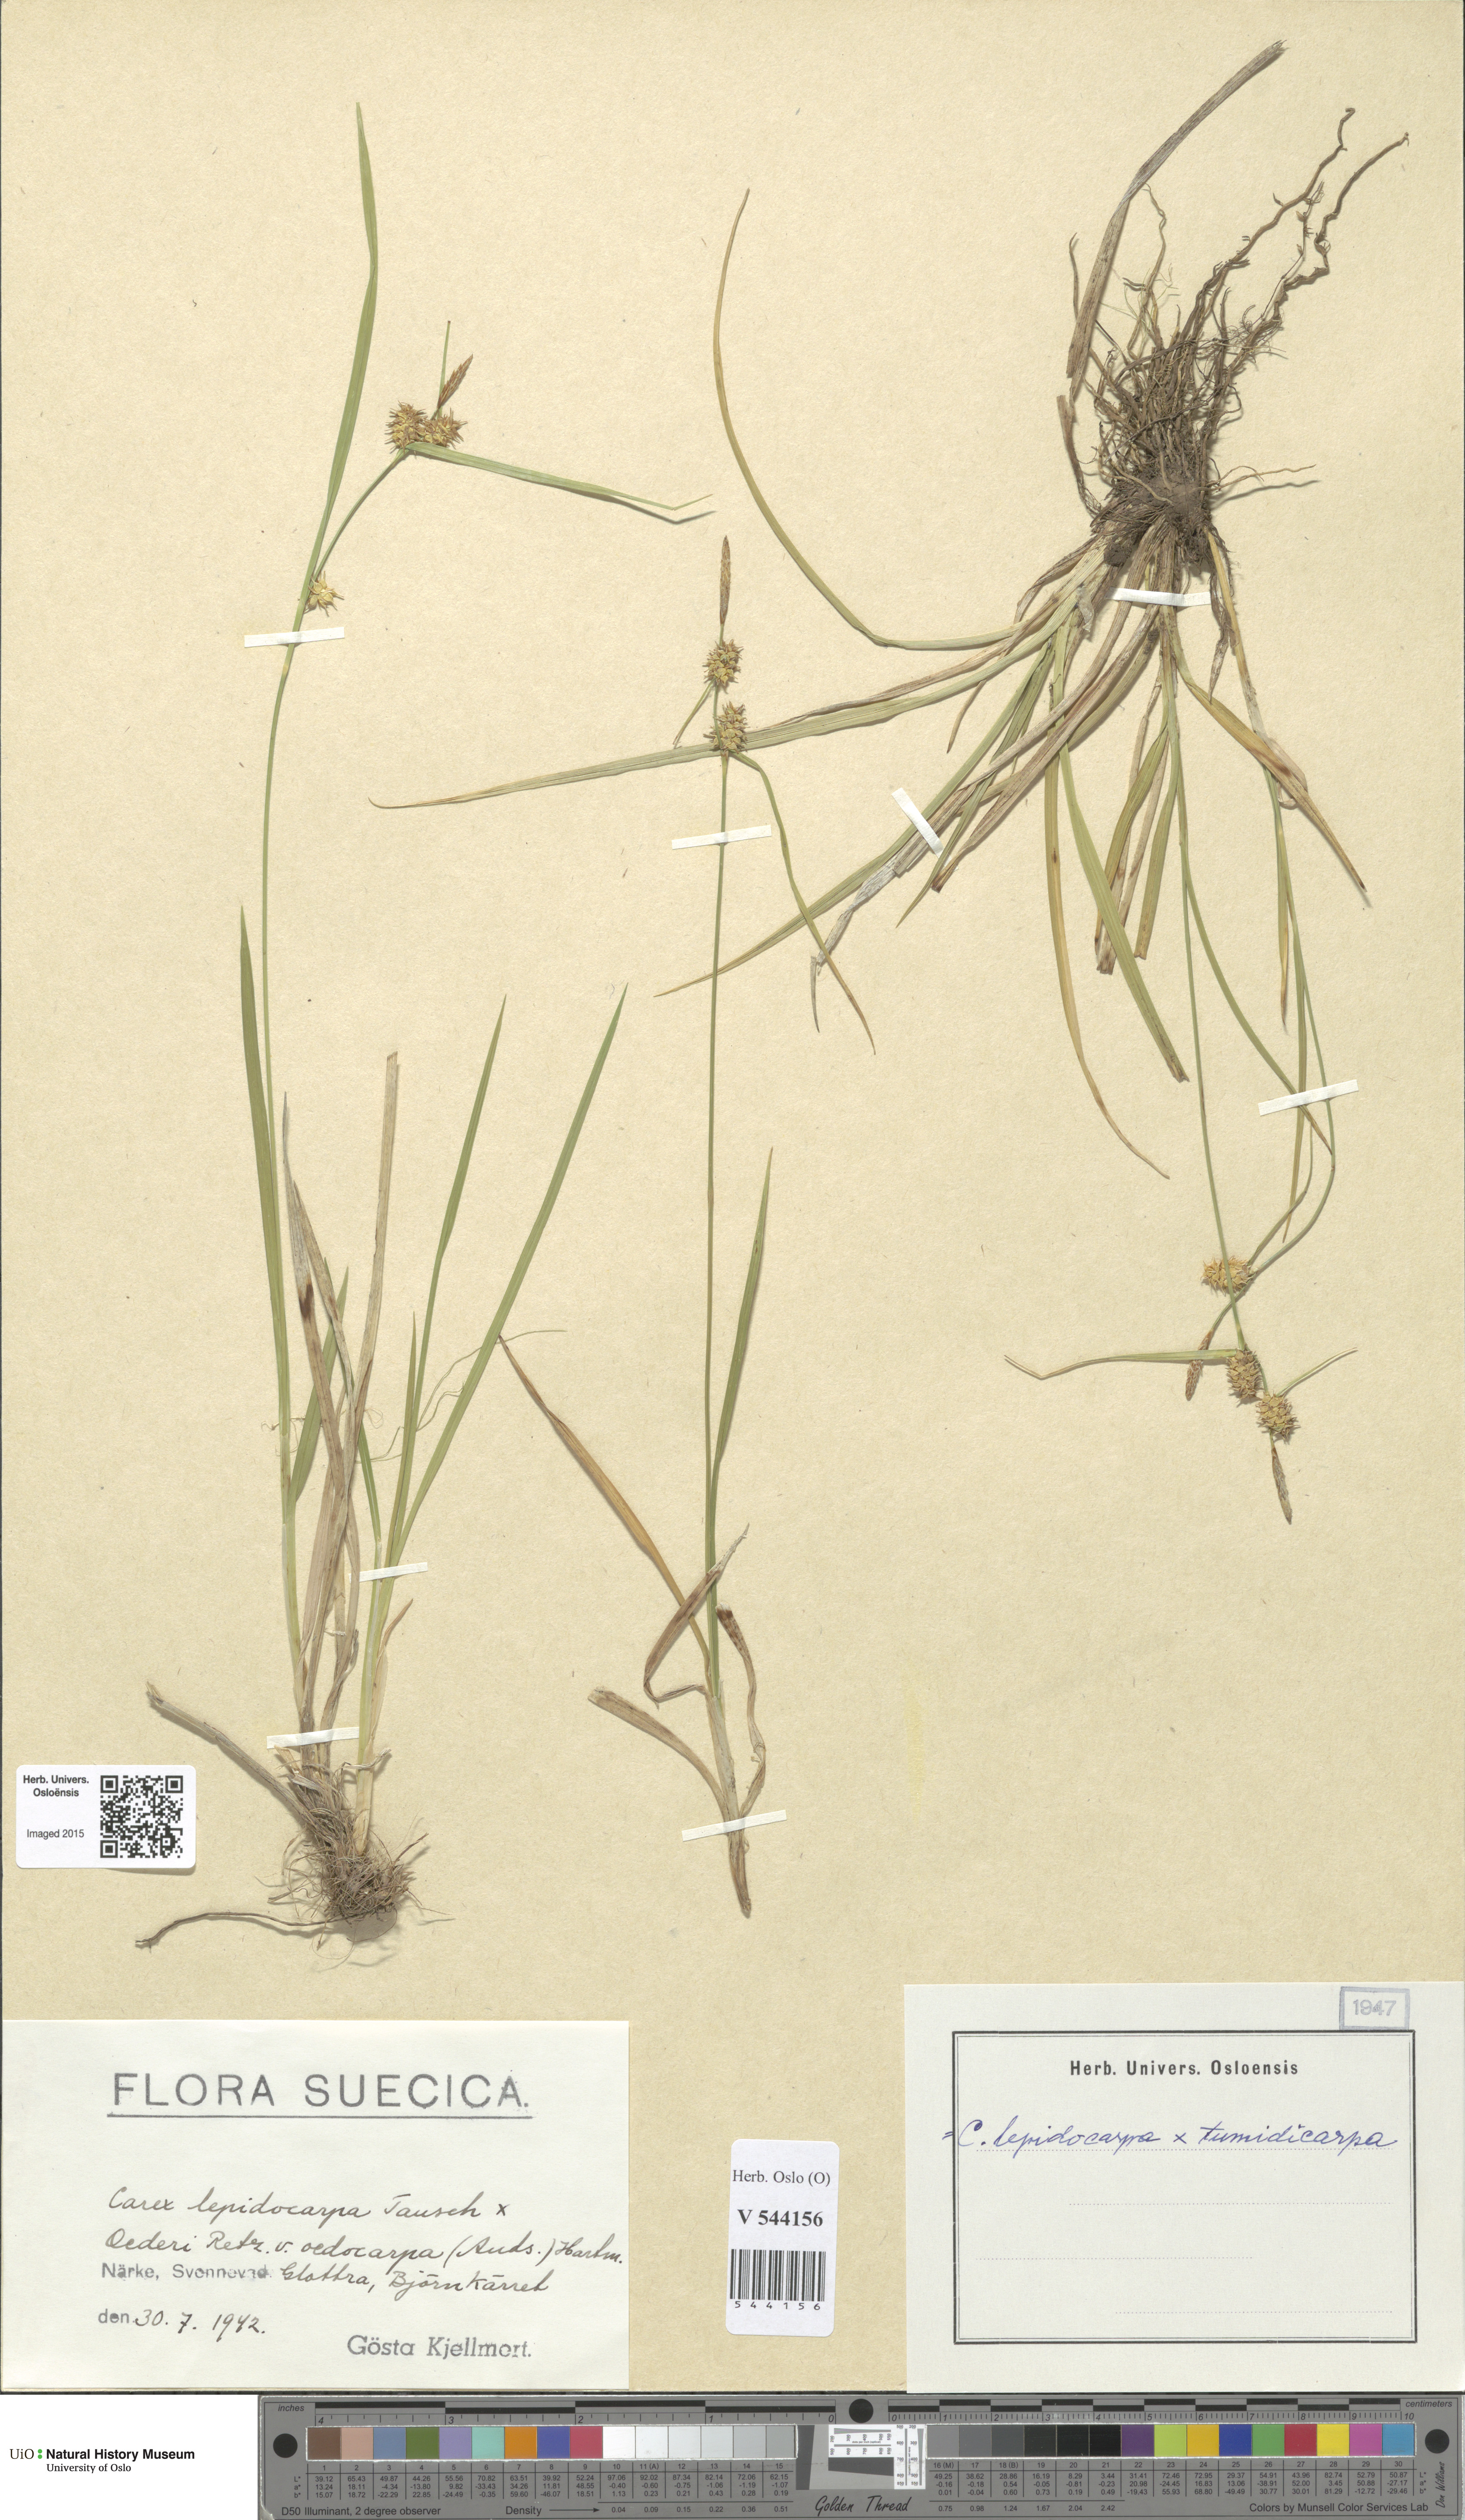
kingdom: Plantae
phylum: Tracheophyta
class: Liliopsida
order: Poales
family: Cyperaceae
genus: Carex
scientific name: Carex
